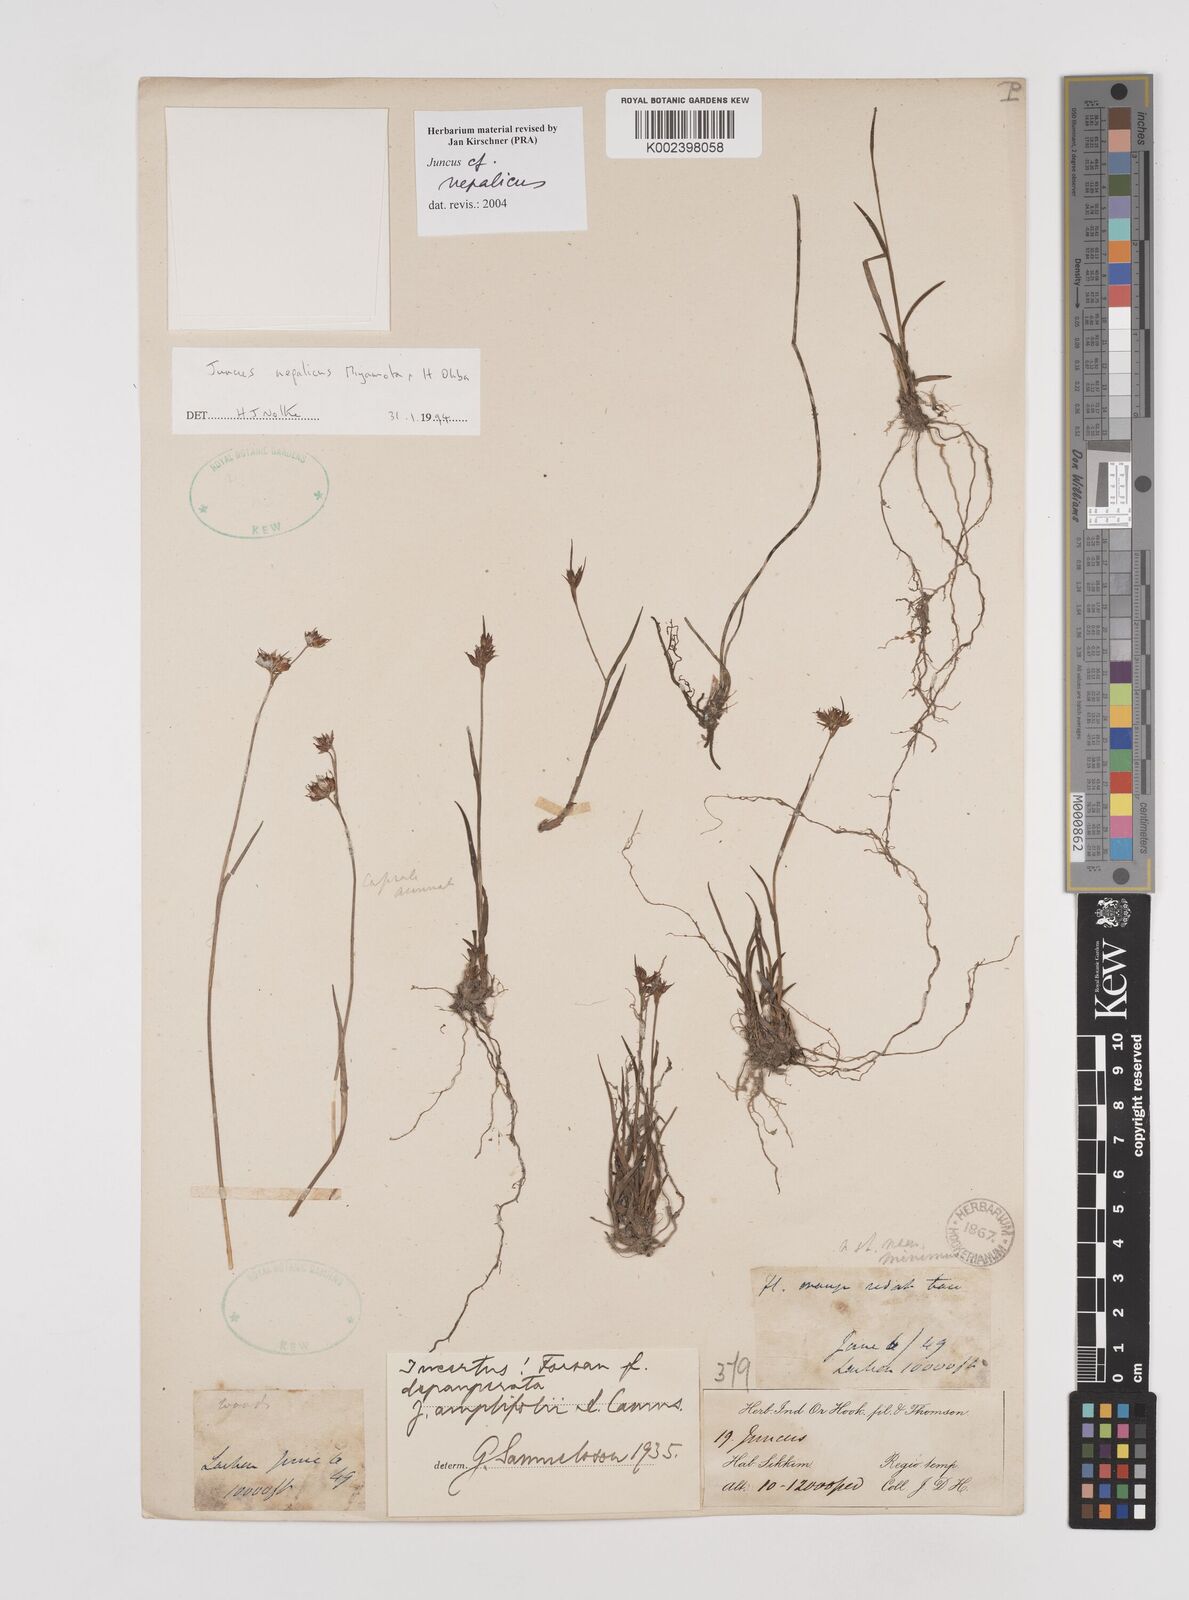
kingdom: Plantae
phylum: Tracheophyta
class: Liliopsida
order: Poales
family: Juncaceae
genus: Juncus
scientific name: Juncus nepalicus
